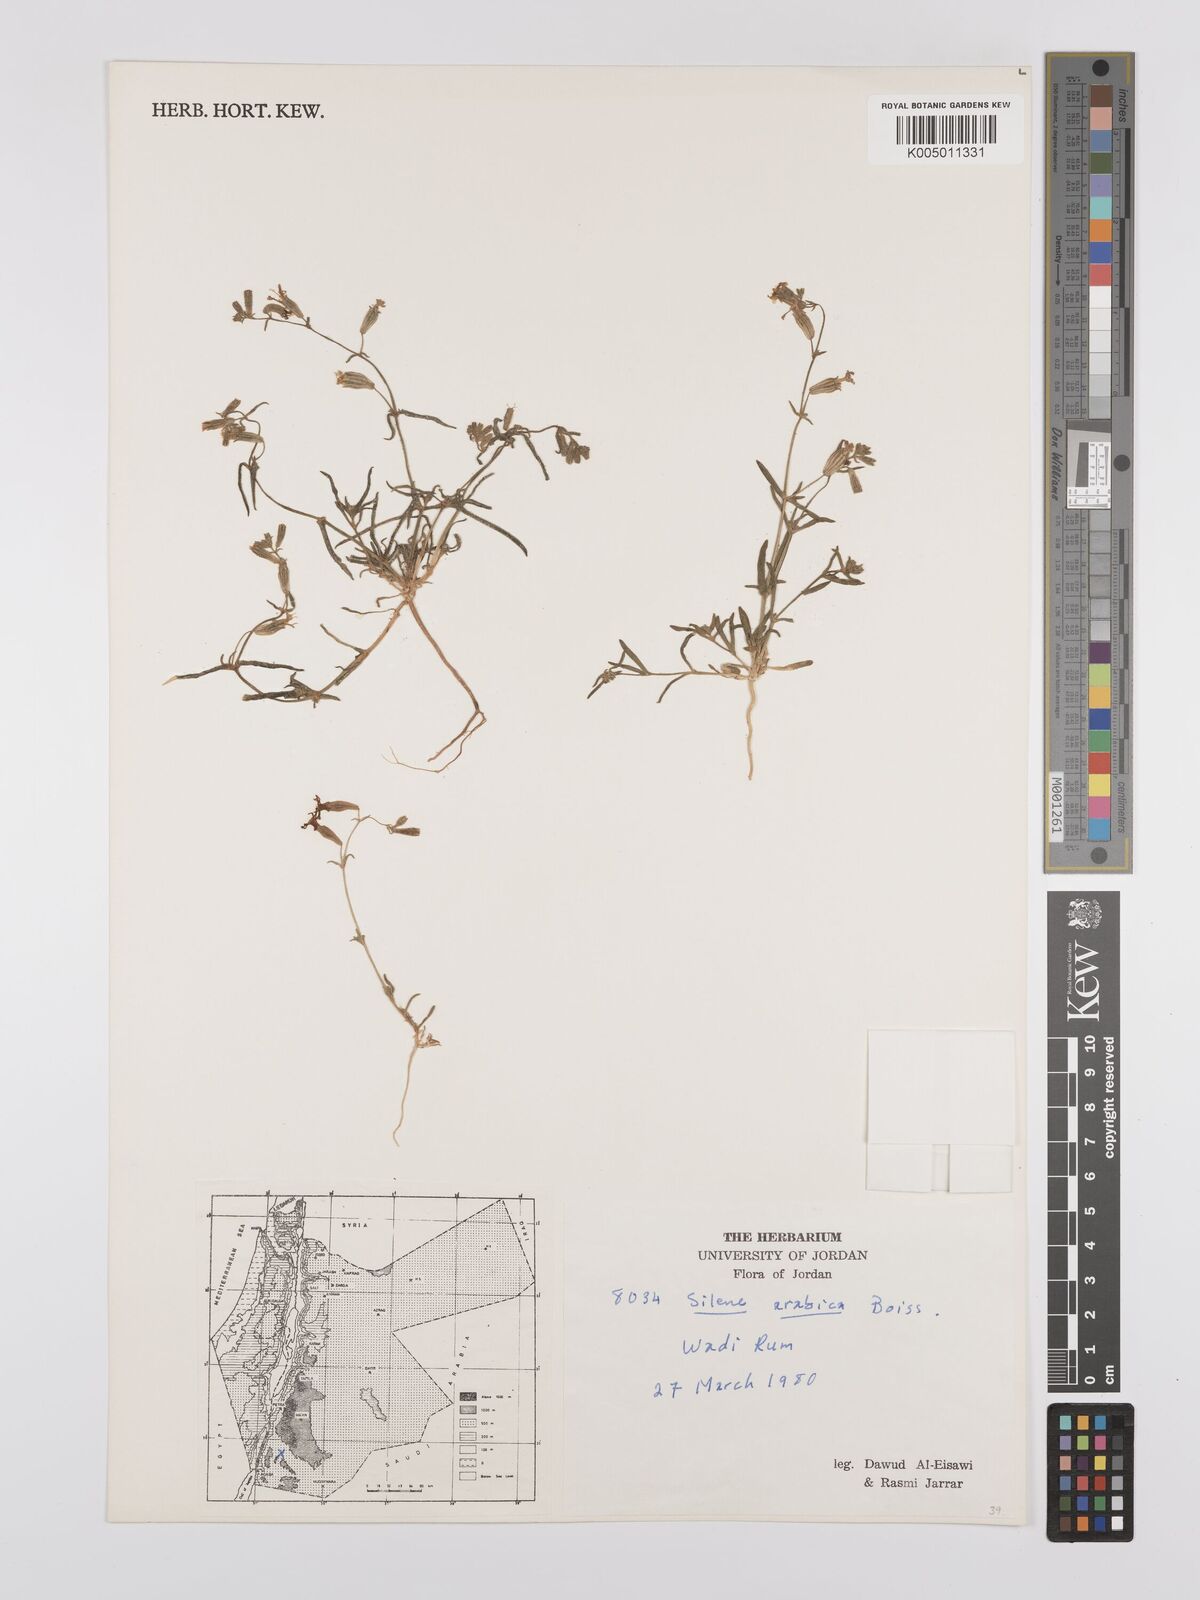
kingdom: Plantae
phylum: Tracheophyta
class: Magnoliopsida
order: Caryophyllales
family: Caryophyllaceae
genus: Silene
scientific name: Silene arabica
